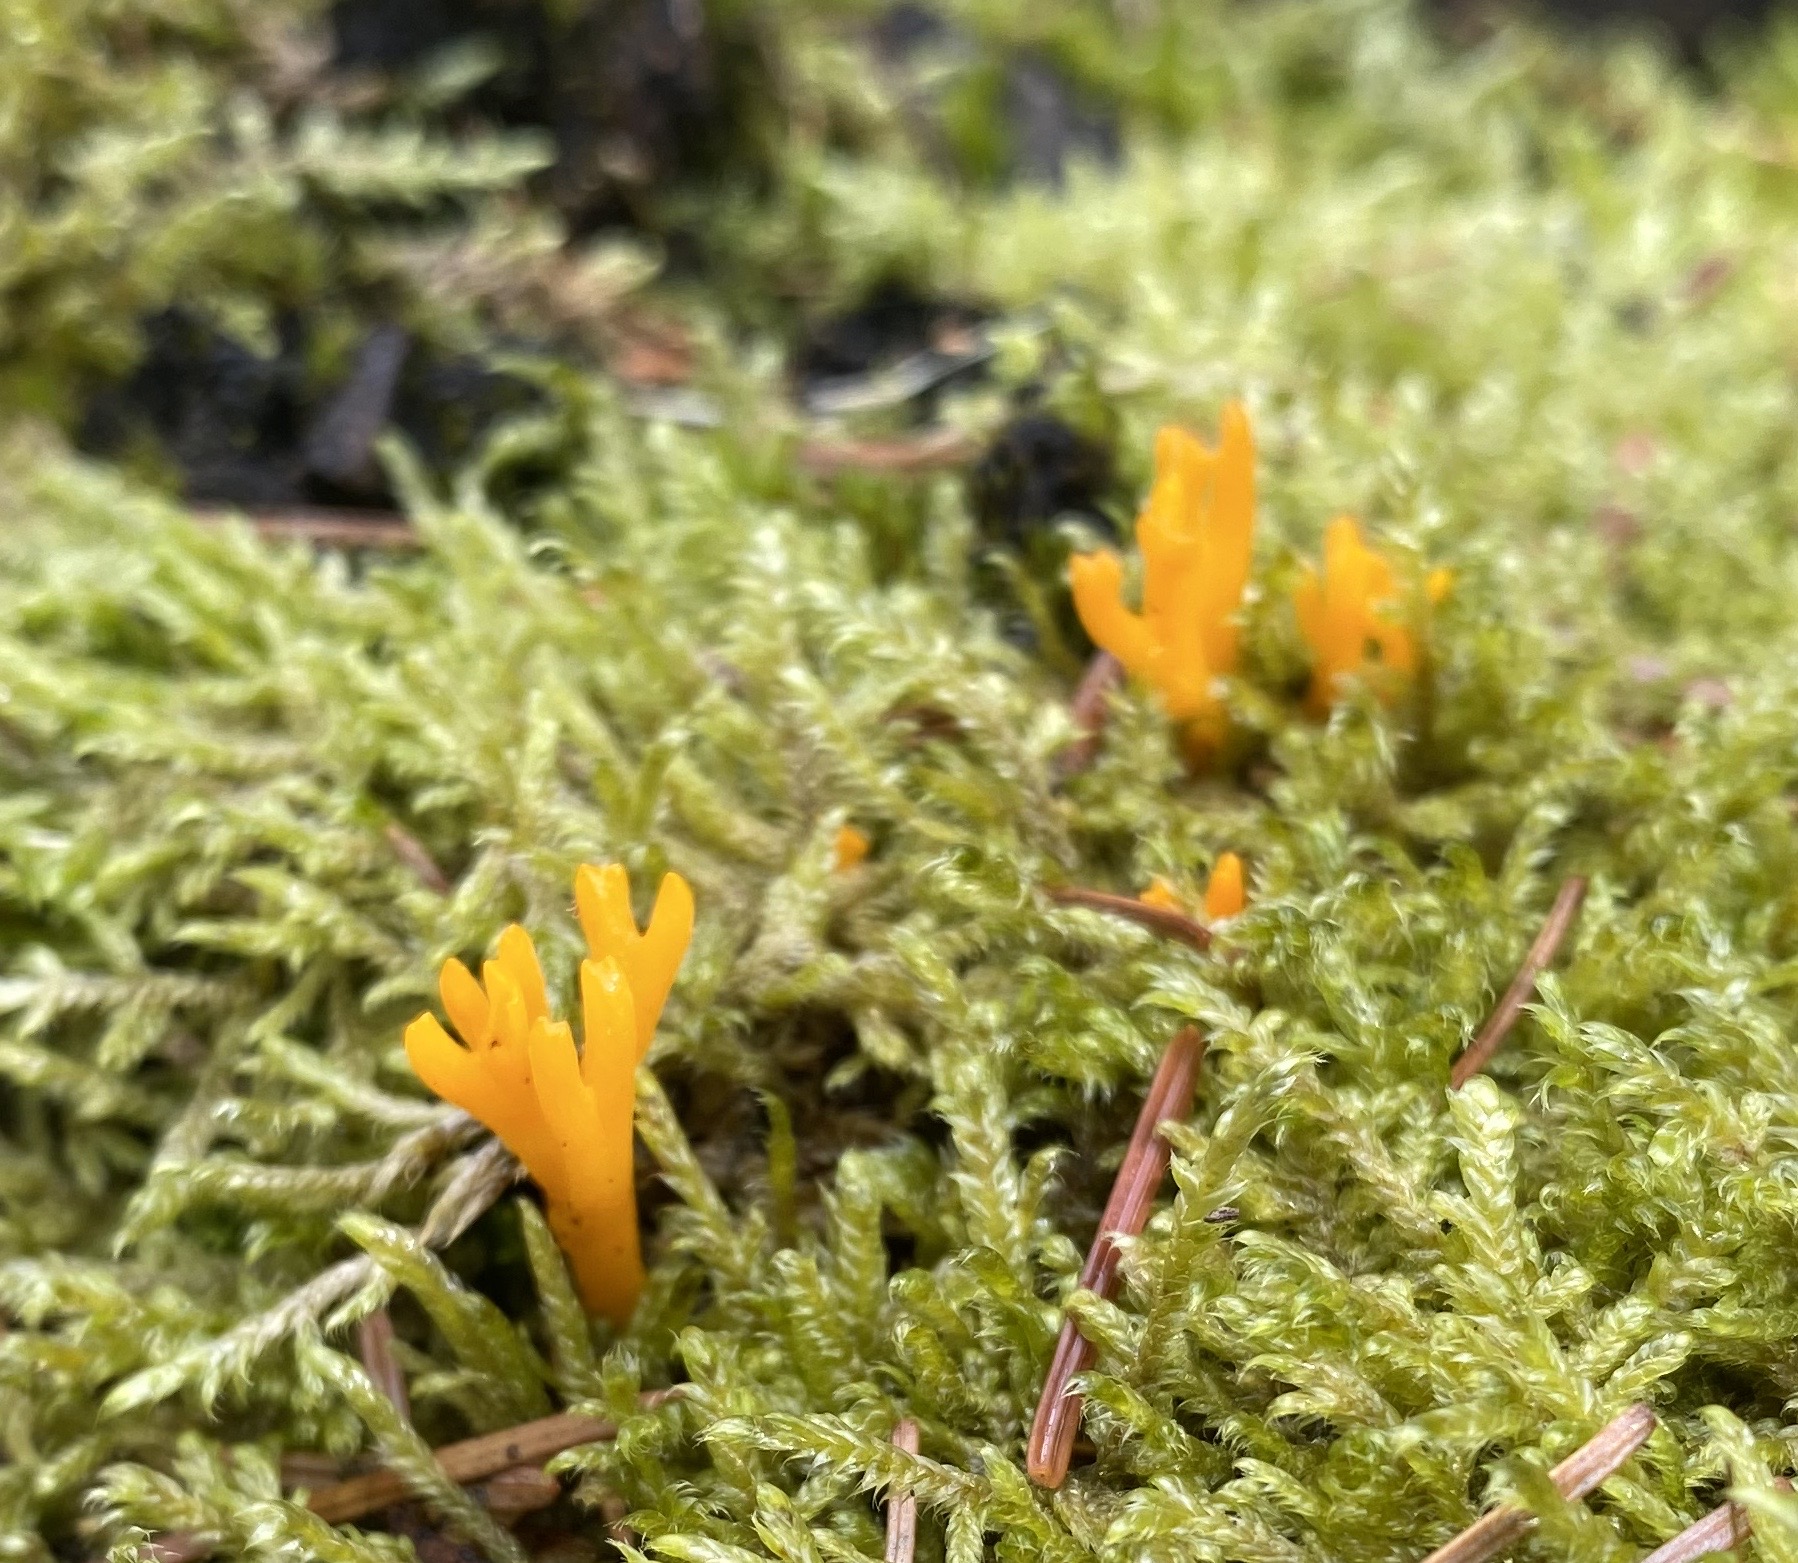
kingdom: Fungi
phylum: Basidiomycota
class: Dacrymycetes
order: Dacrymycetales
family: Dacrymycetaceae
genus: Calocera
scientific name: Calocera viscosa
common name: almindelig guldgaffel
